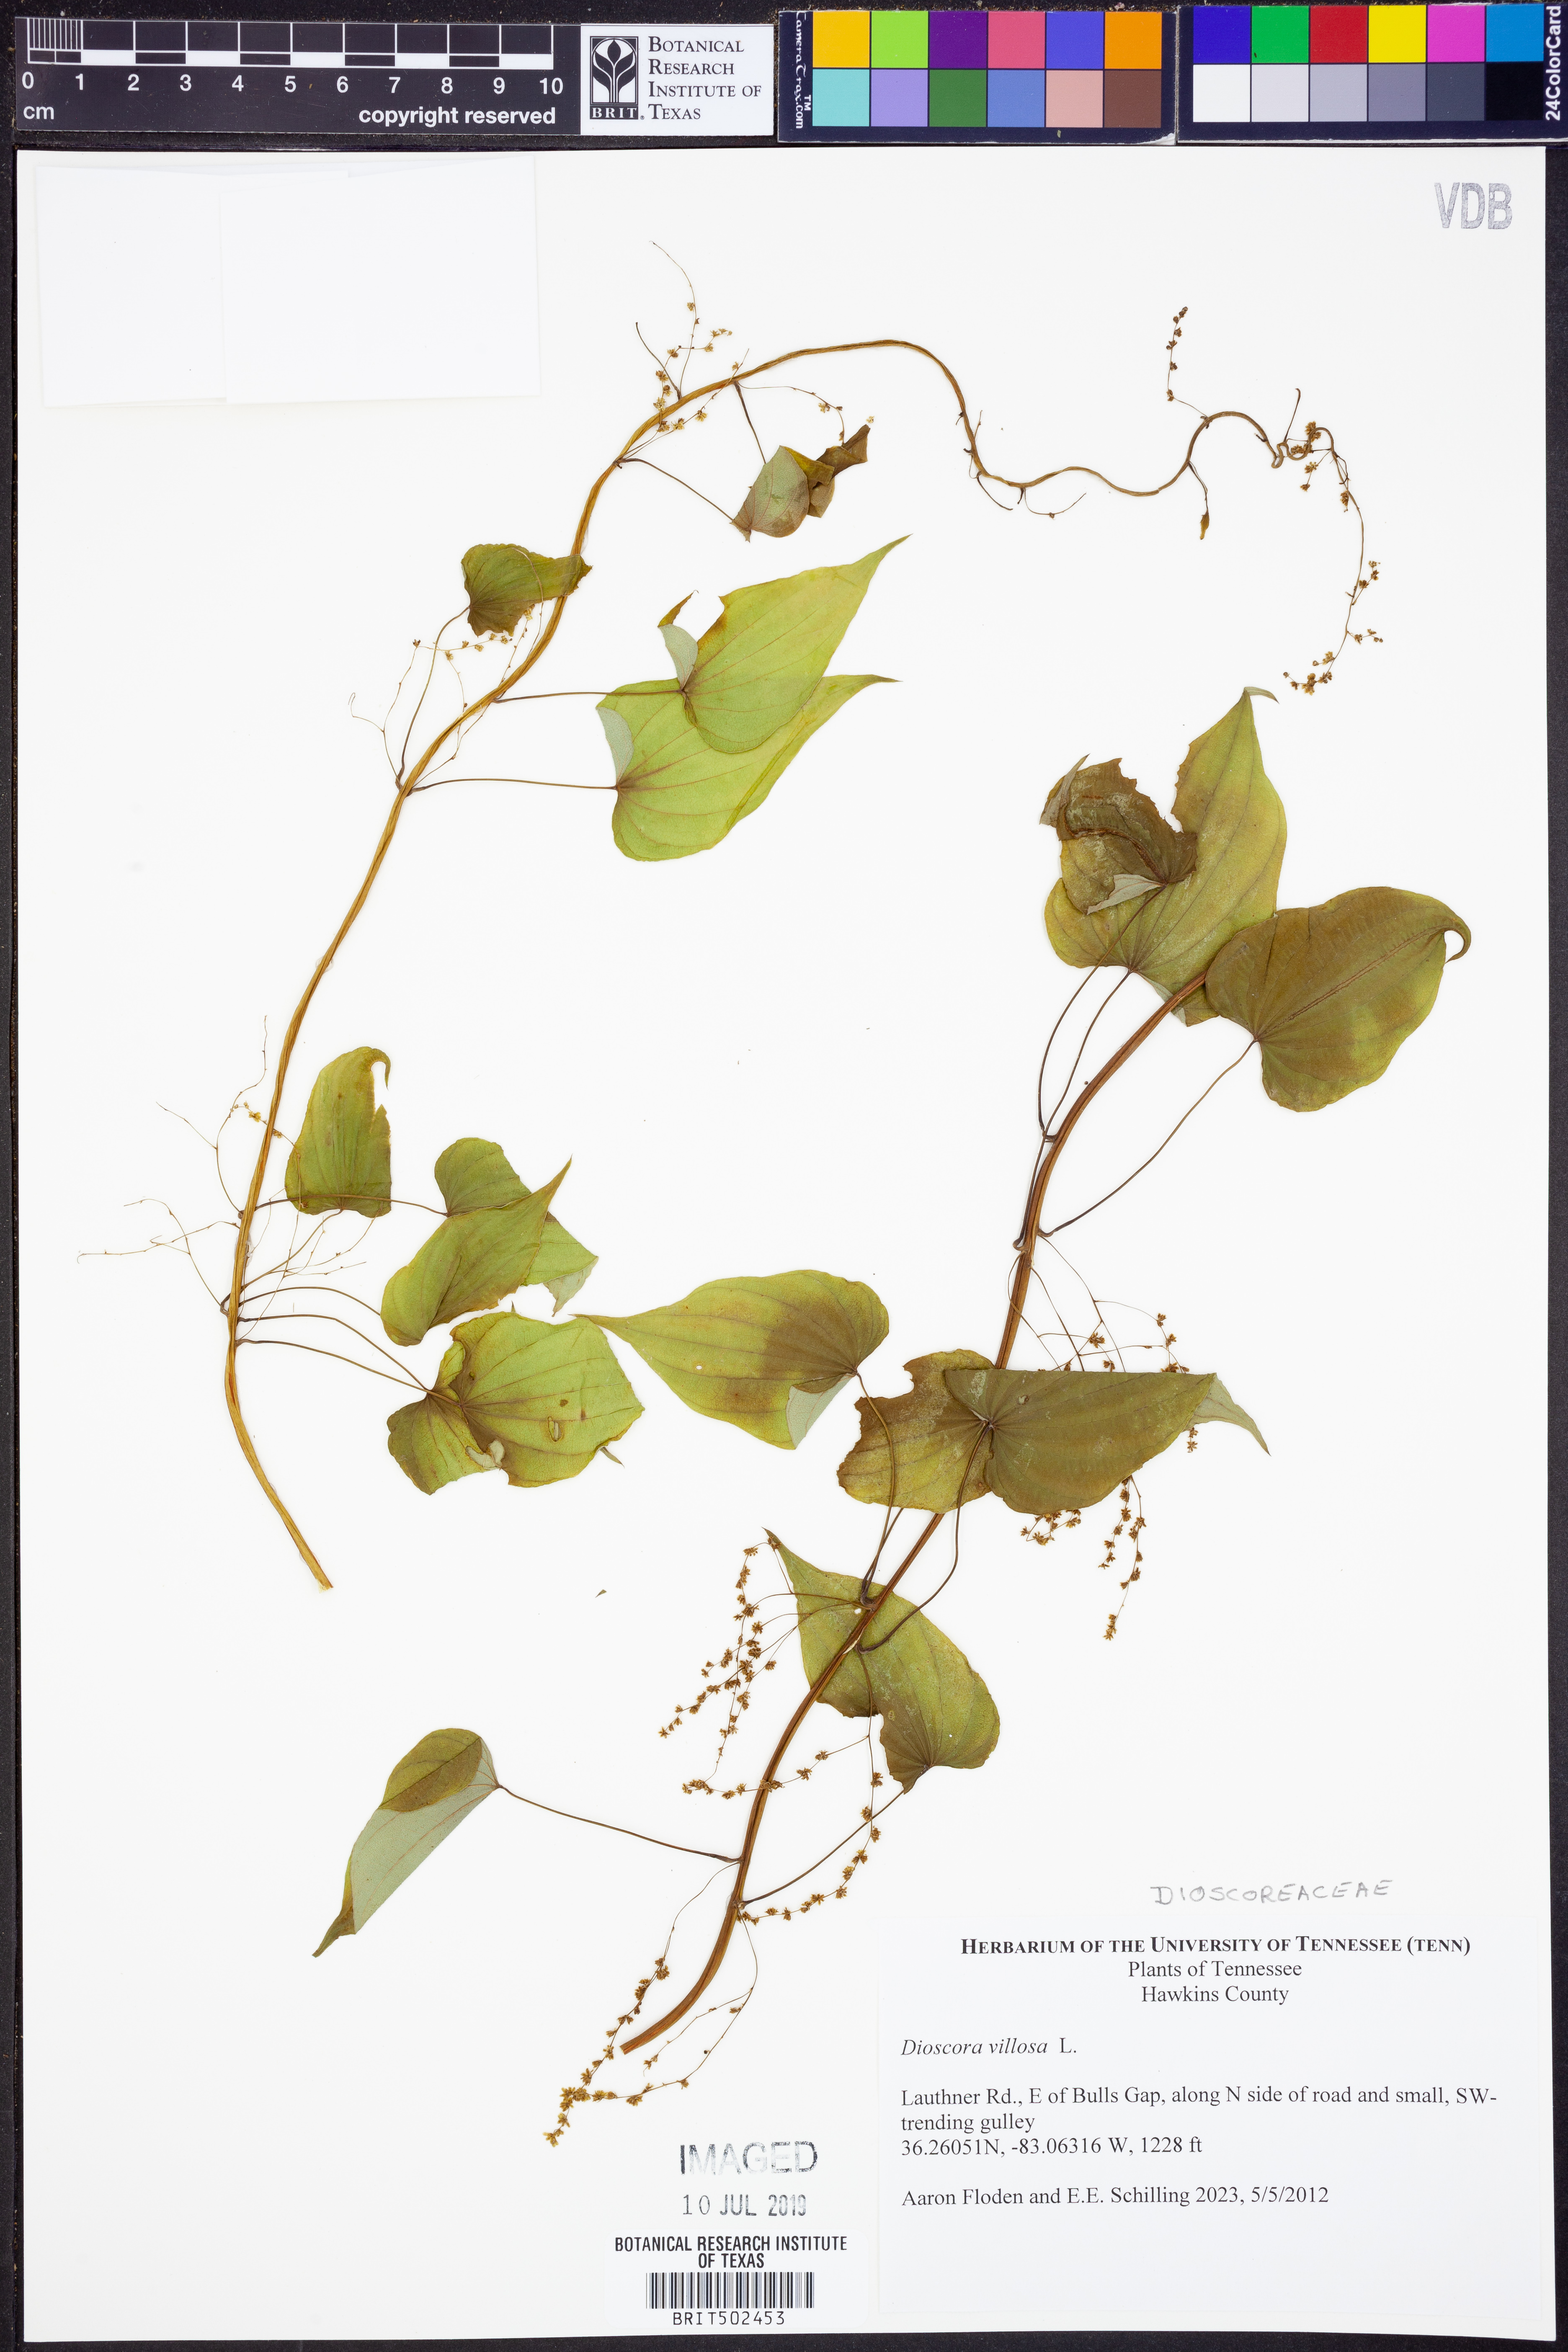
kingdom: Plantae
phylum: Tracheophyta
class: Liliopsida
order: Dioscoreales
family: Dioscoreaceae
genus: Dioscorea
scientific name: Dioscorea villosa
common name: Wild yam
